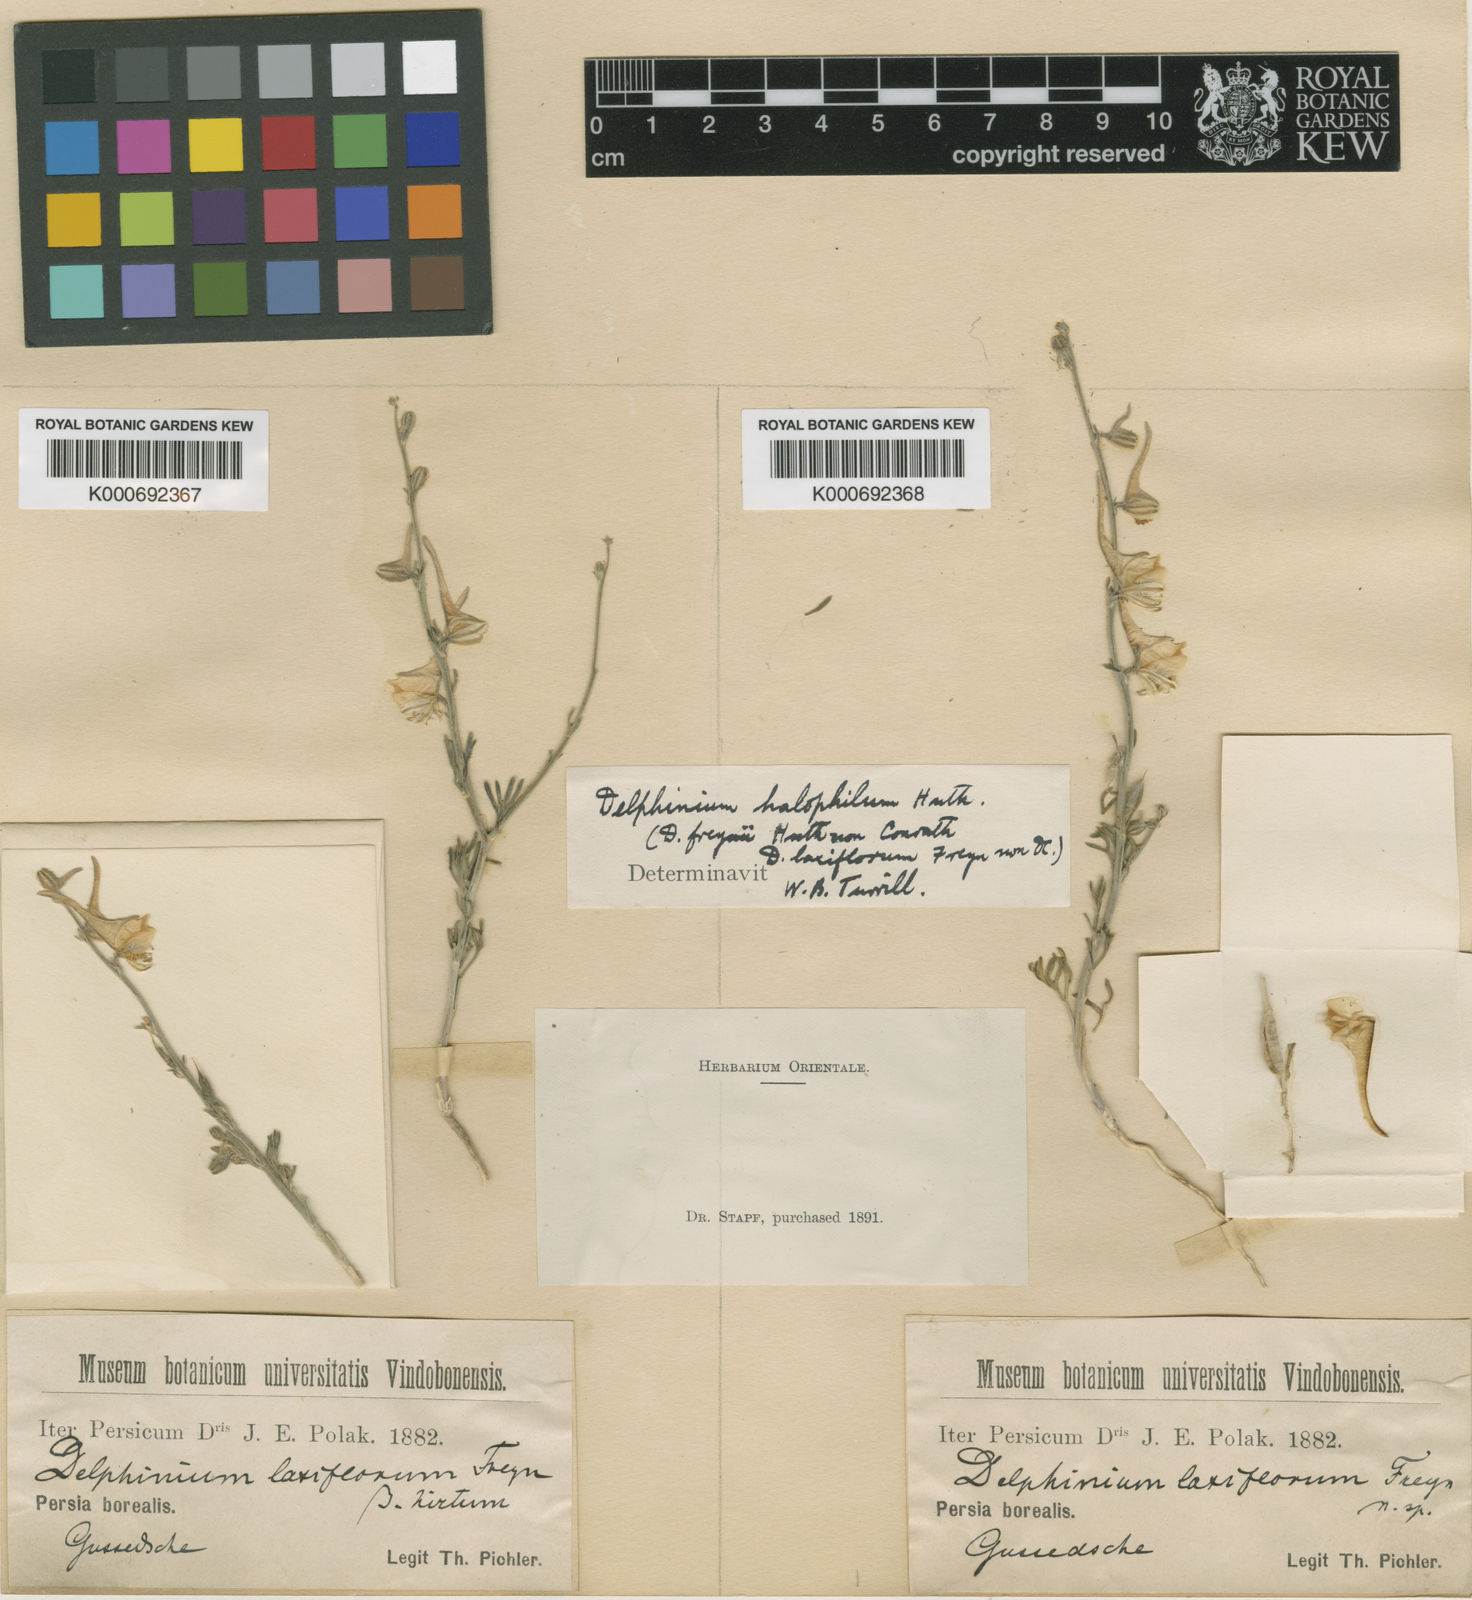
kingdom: Plantae
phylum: Tracheophyta
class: Magnoliopsida
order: Ranunculales
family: Ranunculaceae
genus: Delphinium
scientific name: Delphinium halophilum
